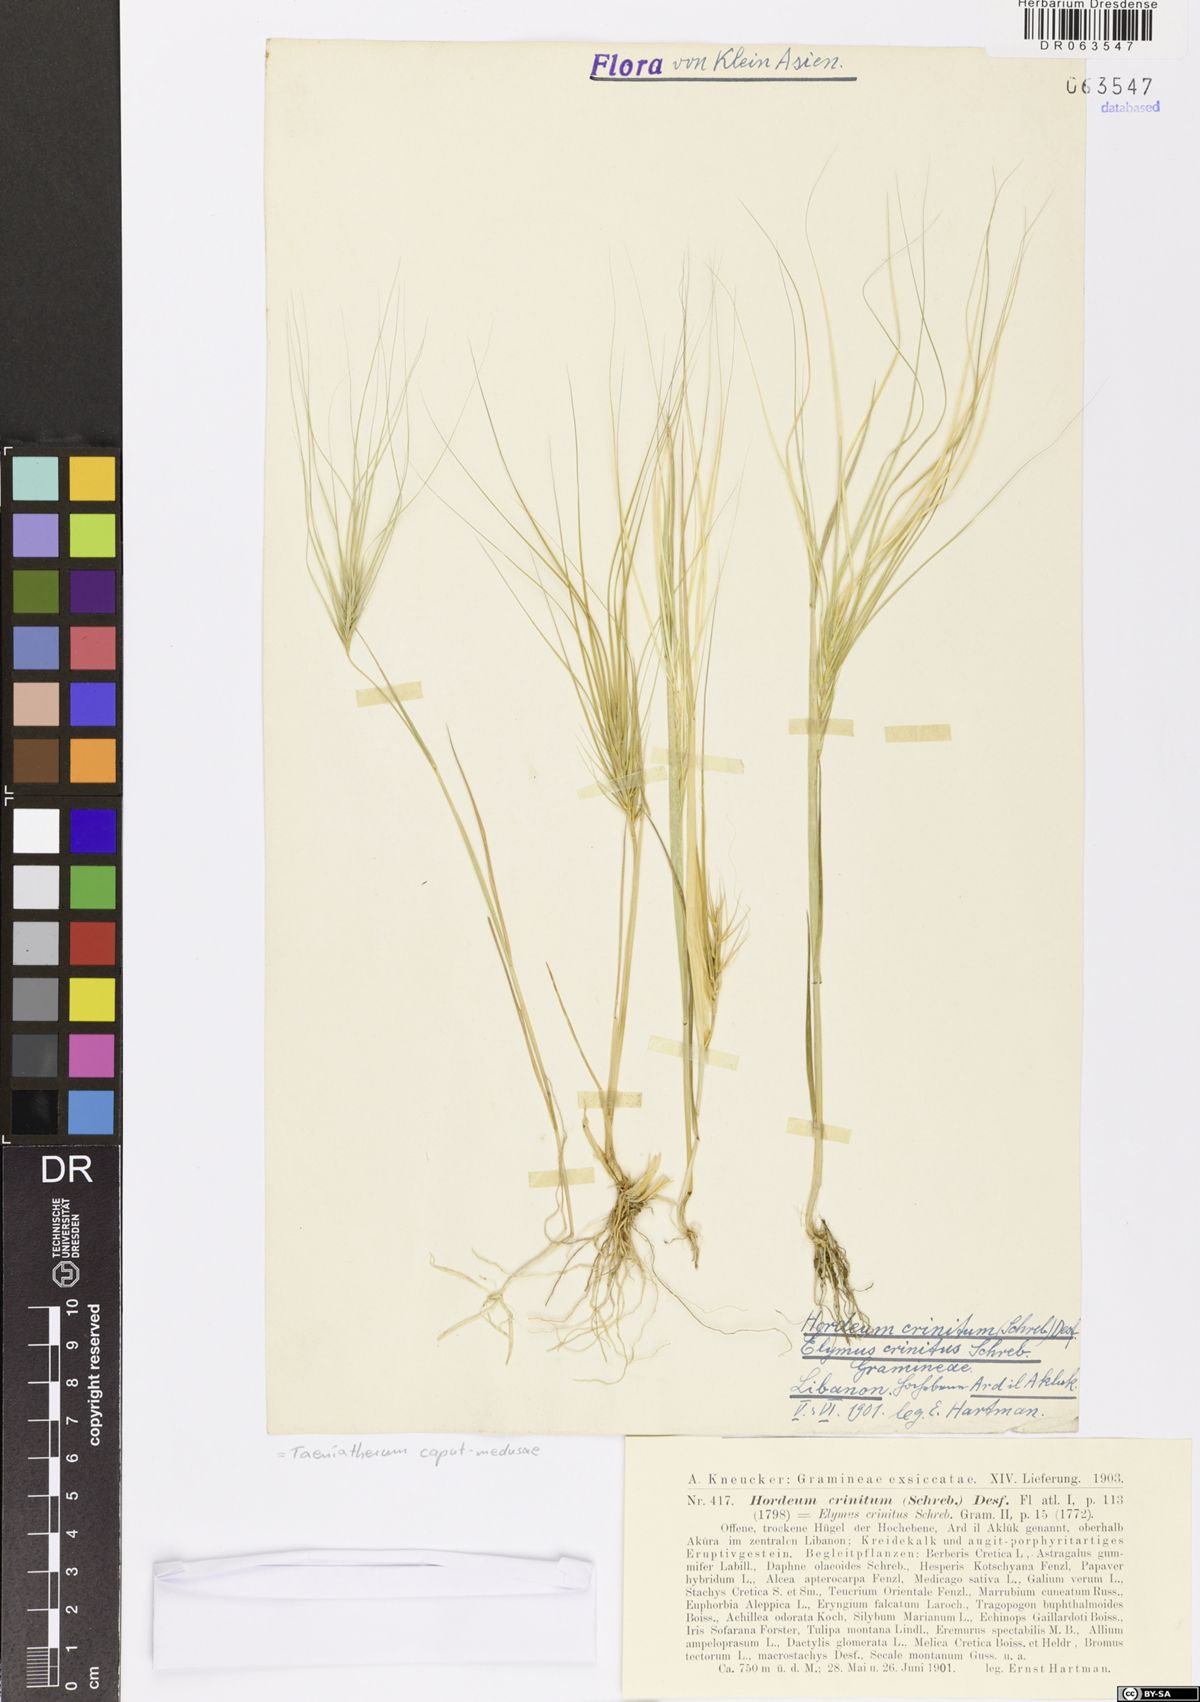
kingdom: Plantae
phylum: Tracheophyta
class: Liliopsida
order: Poales
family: Poaceae
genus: Taeniatherum
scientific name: Taeniatherum caput-medusae
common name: Medusahead
